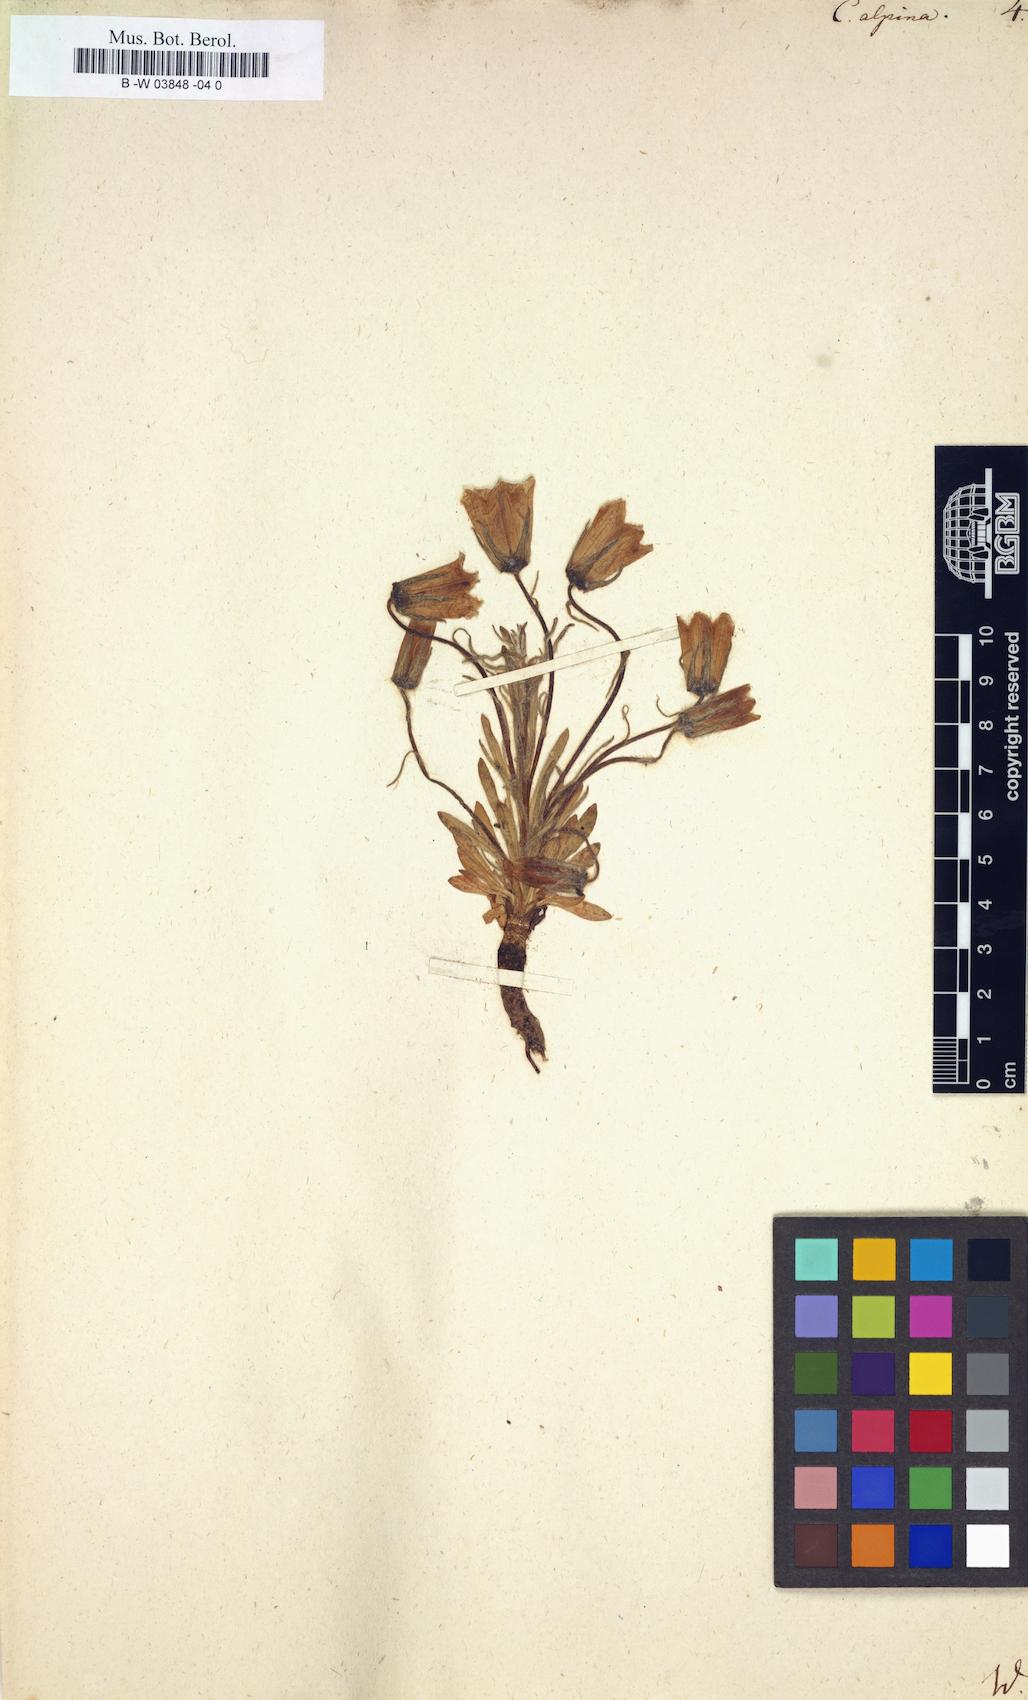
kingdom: Plantae
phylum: Tracheophyta
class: Magnoliopsida
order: Asterales
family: Campanulaceae
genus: Campanula
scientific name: Campanula alpina
